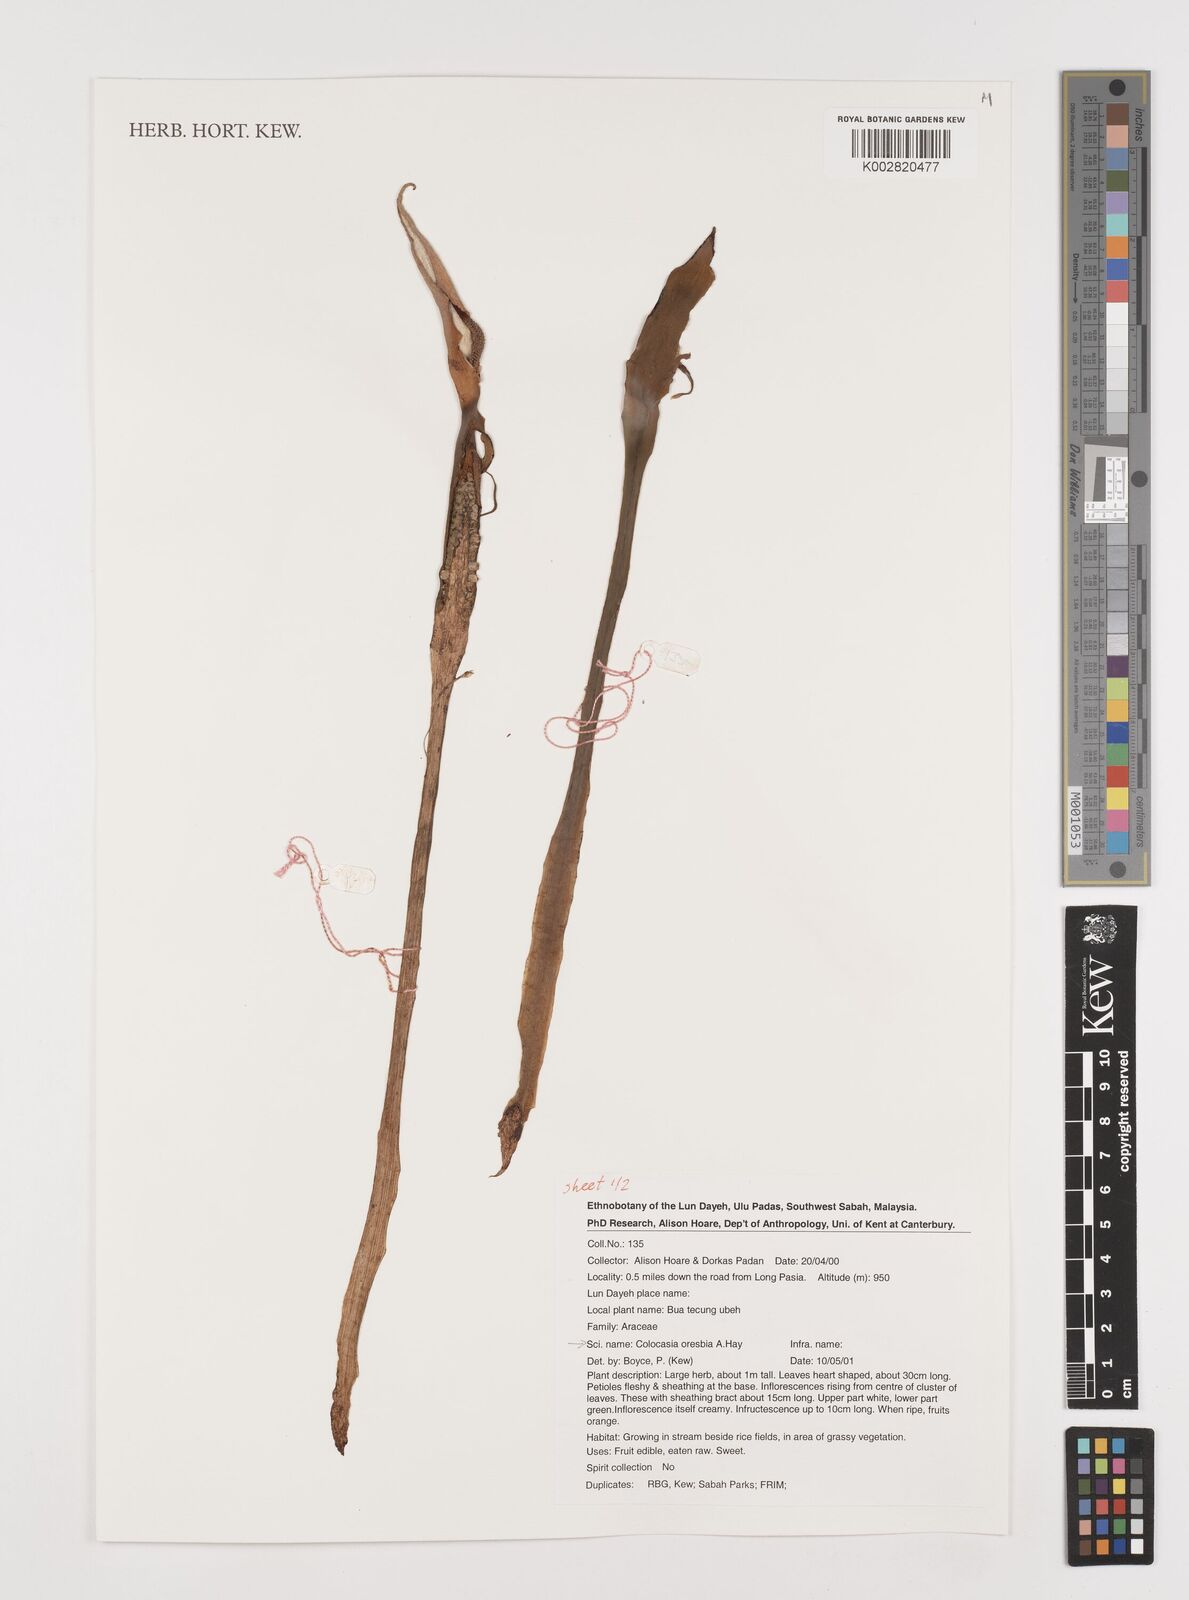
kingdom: Plantae
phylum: Tracheophyta
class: Liliopsida
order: Alismatales
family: Araceae
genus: Colocasia
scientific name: Colocasia oresbia
